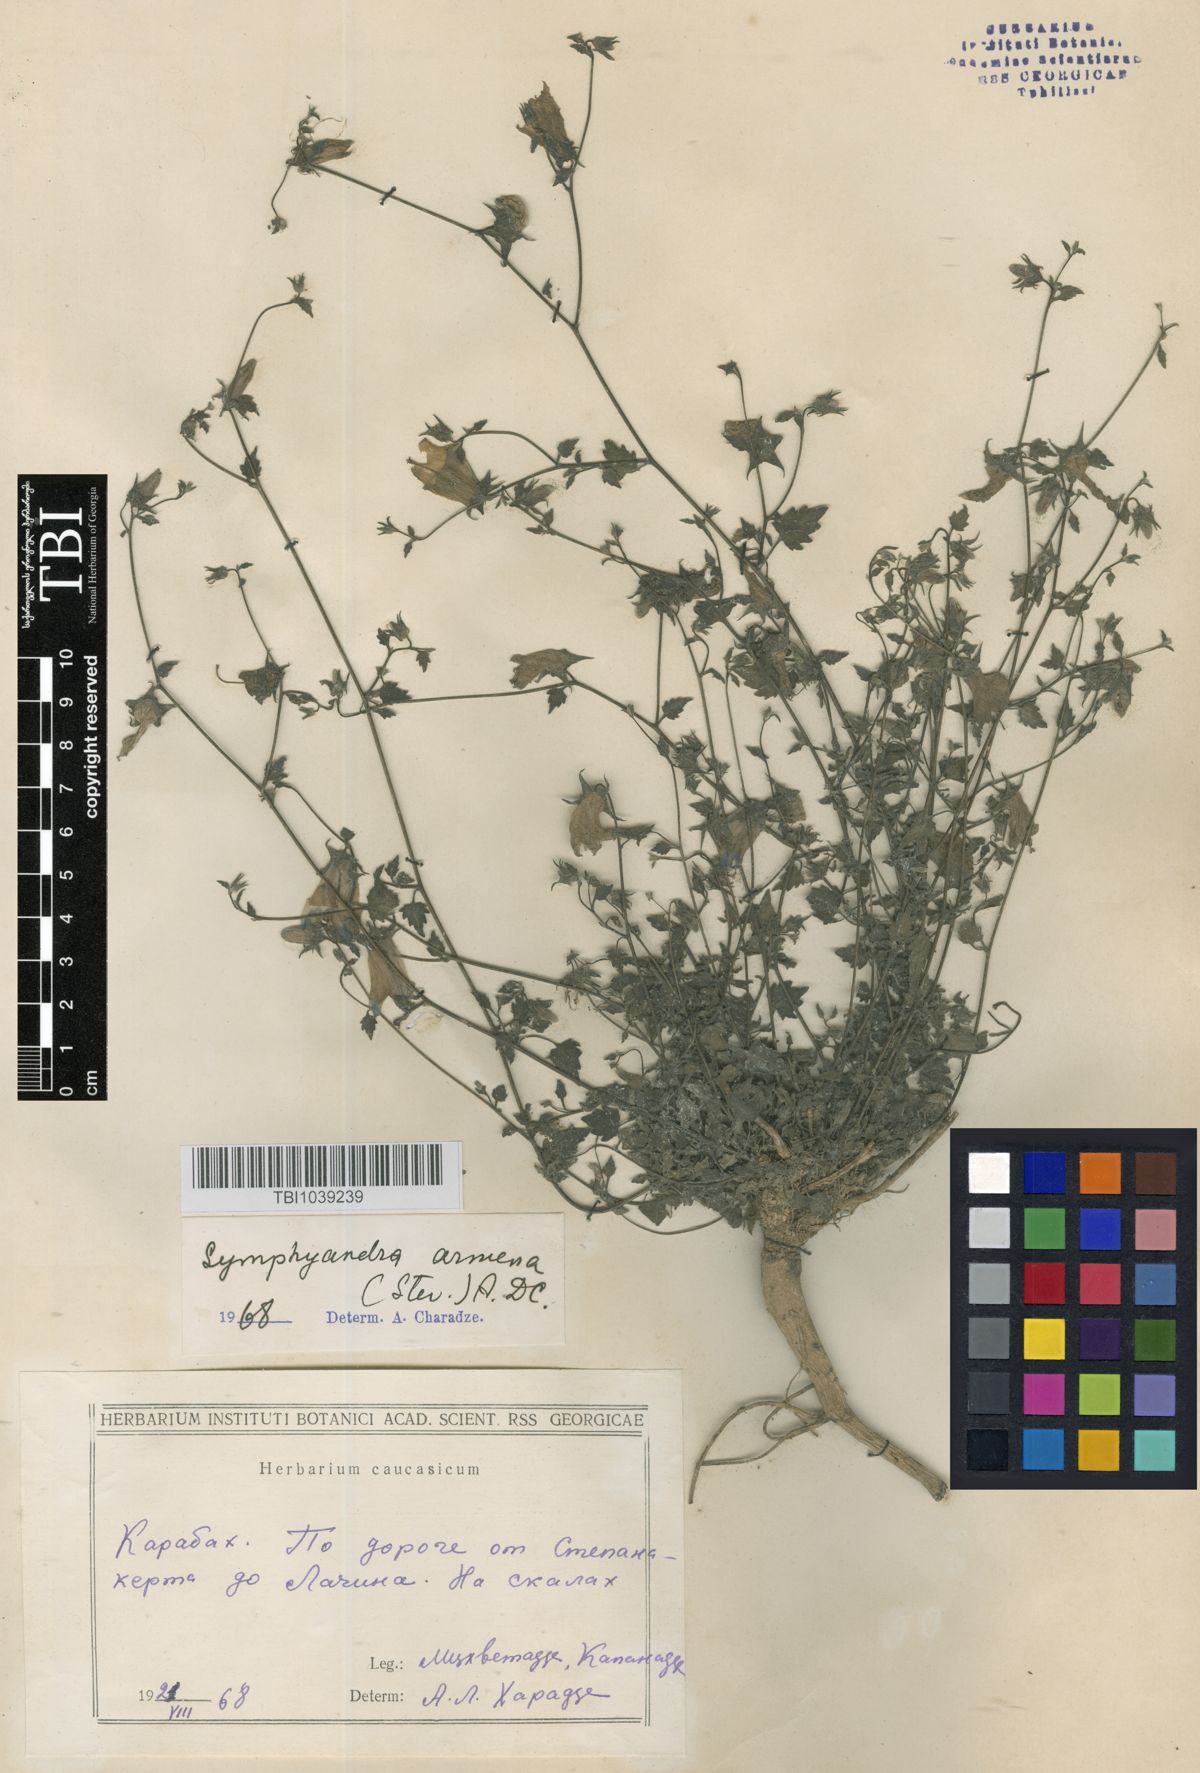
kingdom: Plantae
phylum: Tracheophyta
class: Magnoliopsida
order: Asterales
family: Campanulaceae
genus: Campanula
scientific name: Campanula armena
